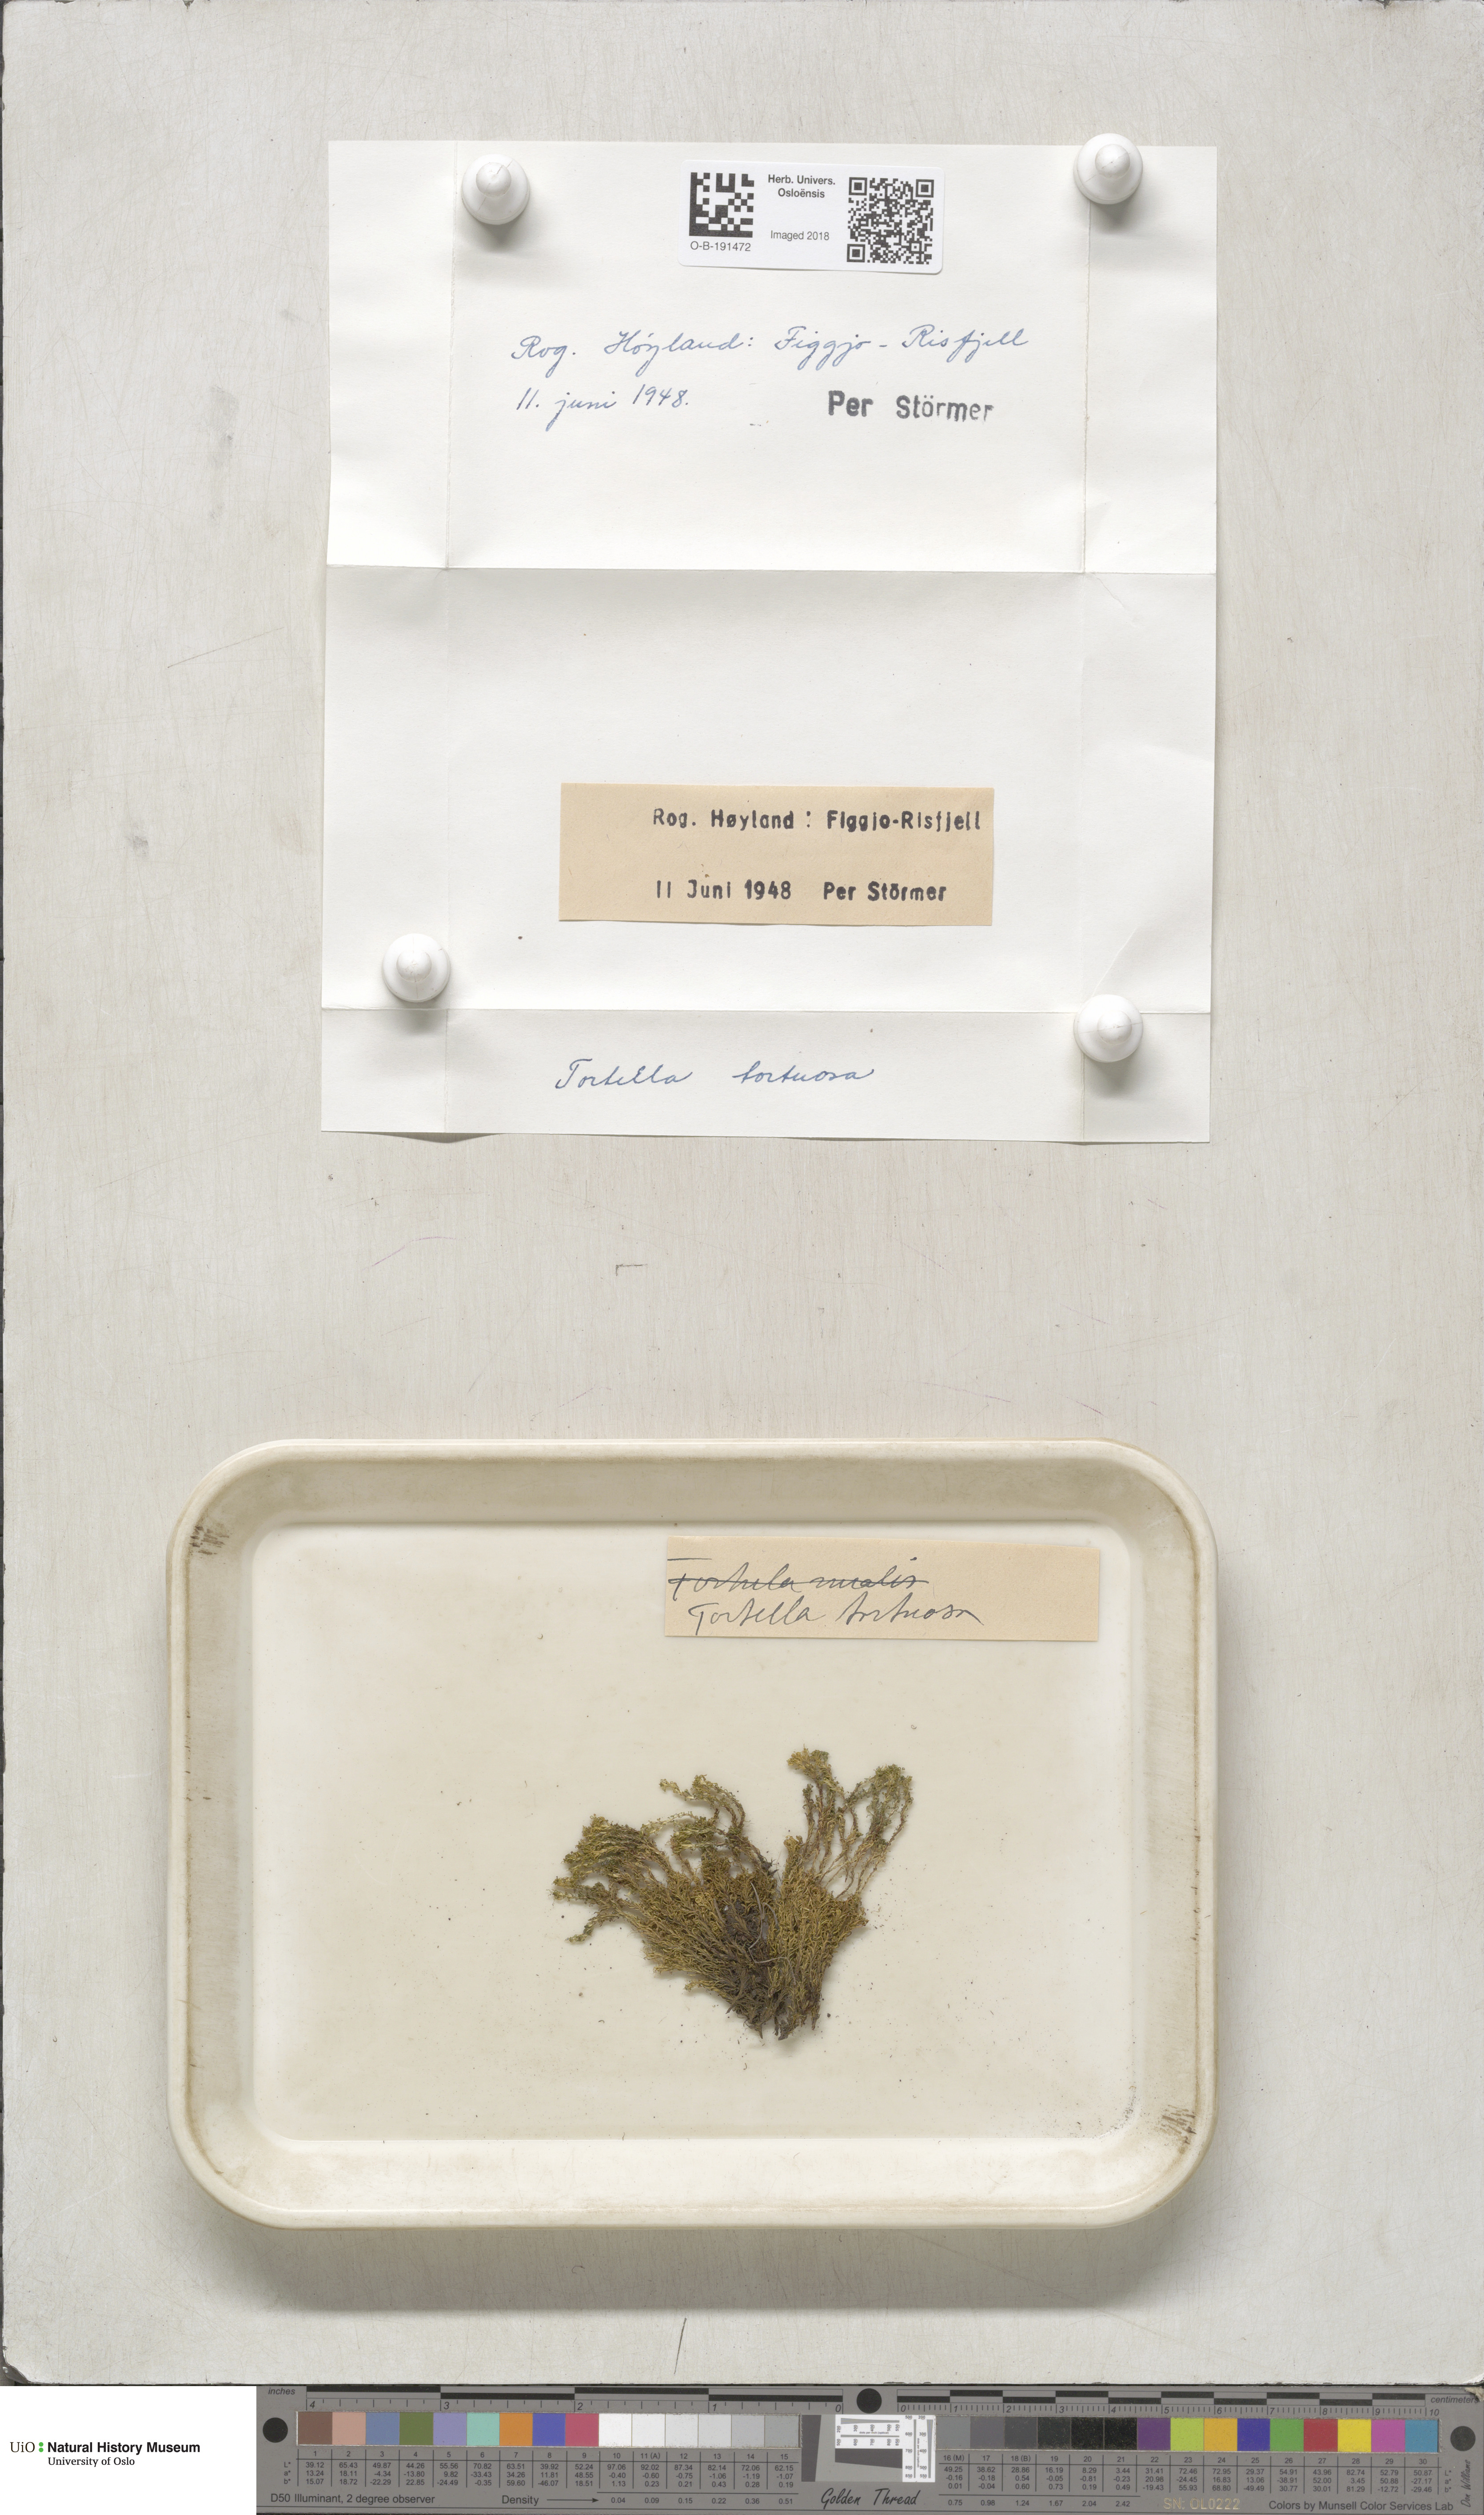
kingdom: Plantae
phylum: Bryophyta
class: Bryopsida
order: Pottiales
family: Pottiaceae
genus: Tortella
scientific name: Tortella tortuosa
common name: Frizzled crisp moss
